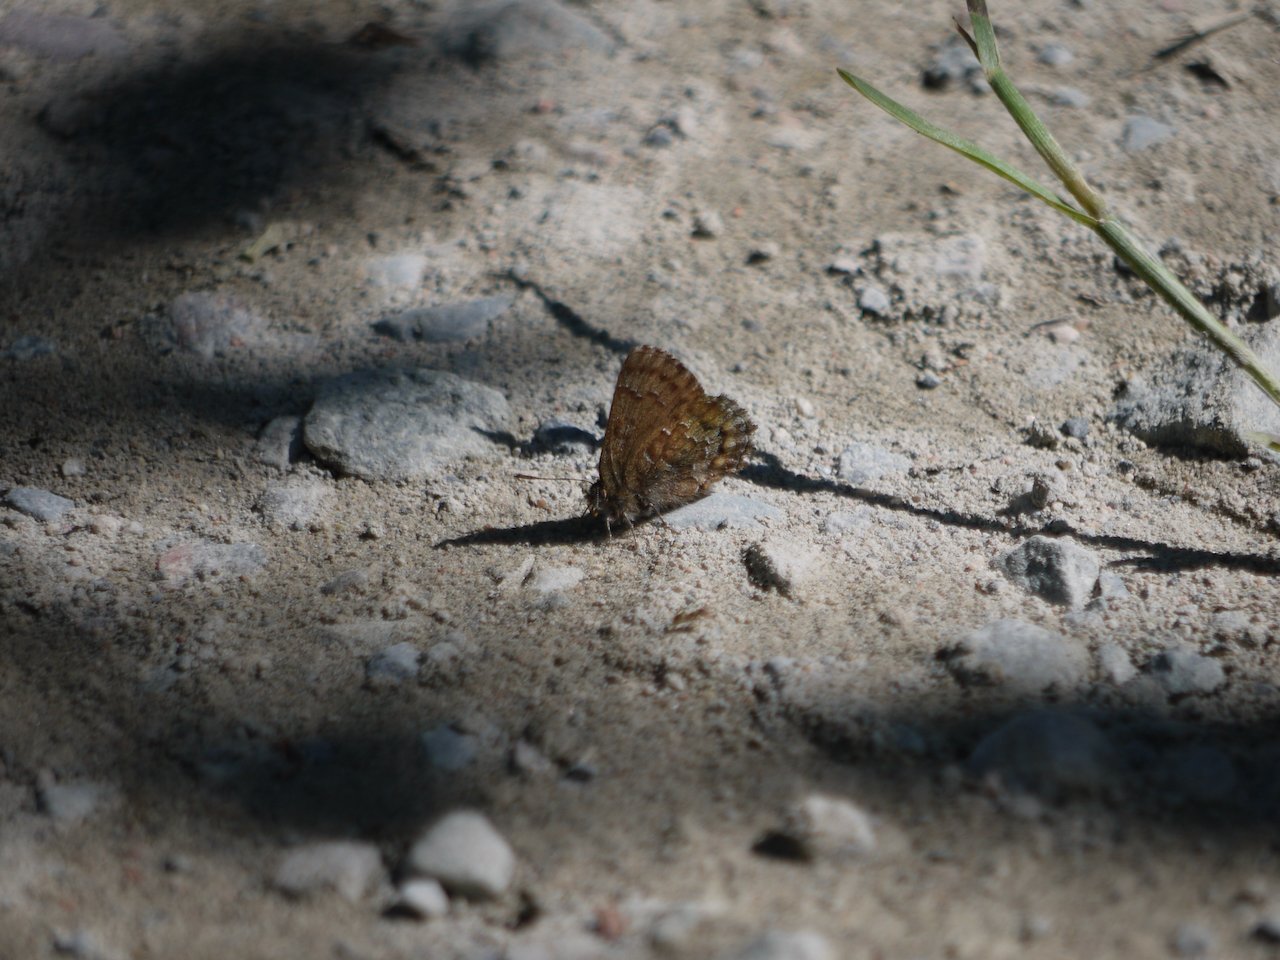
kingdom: Animalia
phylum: Arthropoda
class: Insecta
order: Lepidoptera
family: Lycaenidae
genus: Incisalia
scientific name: Incisalia niphon
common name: Eastern Pine Elfin
